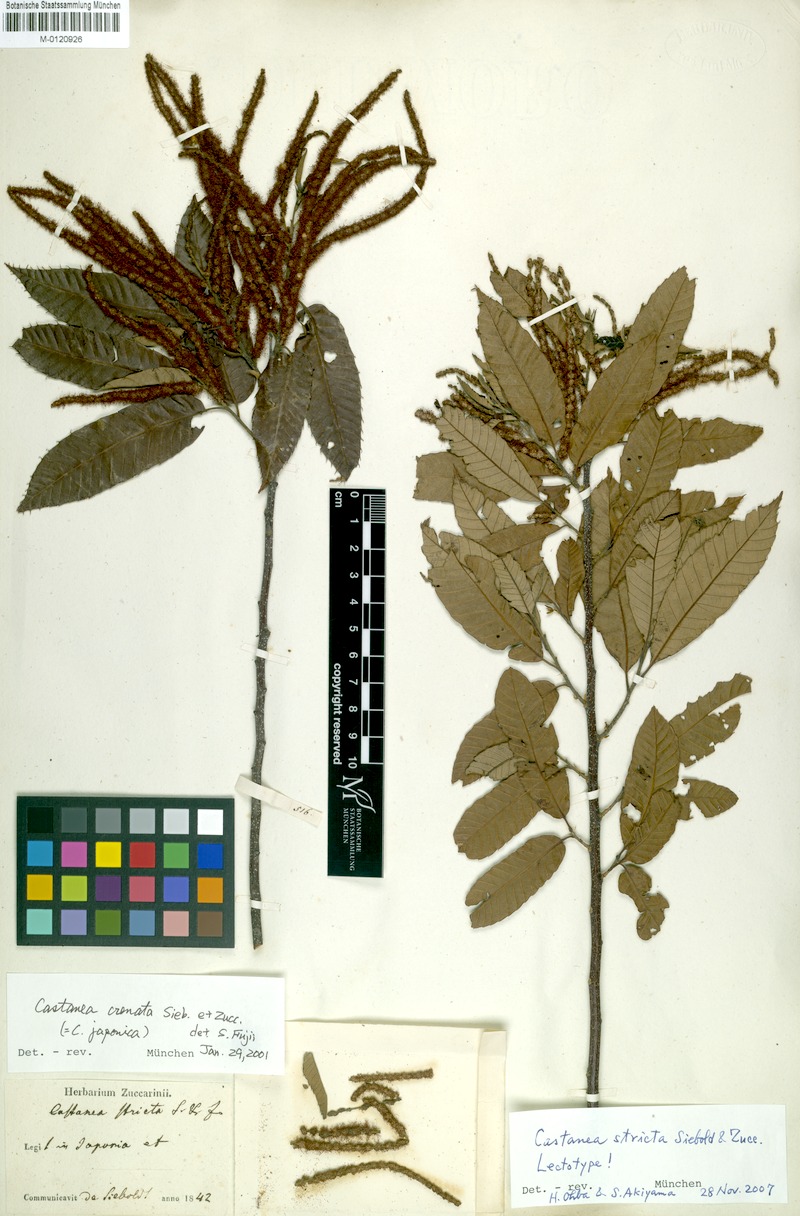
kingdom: Plantae
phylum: Tracheophyta
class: Magnoliopsida
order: Fagales
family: Fagaceae
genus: Castanea
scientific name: Castanea crenata
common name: Japanese chestnut
